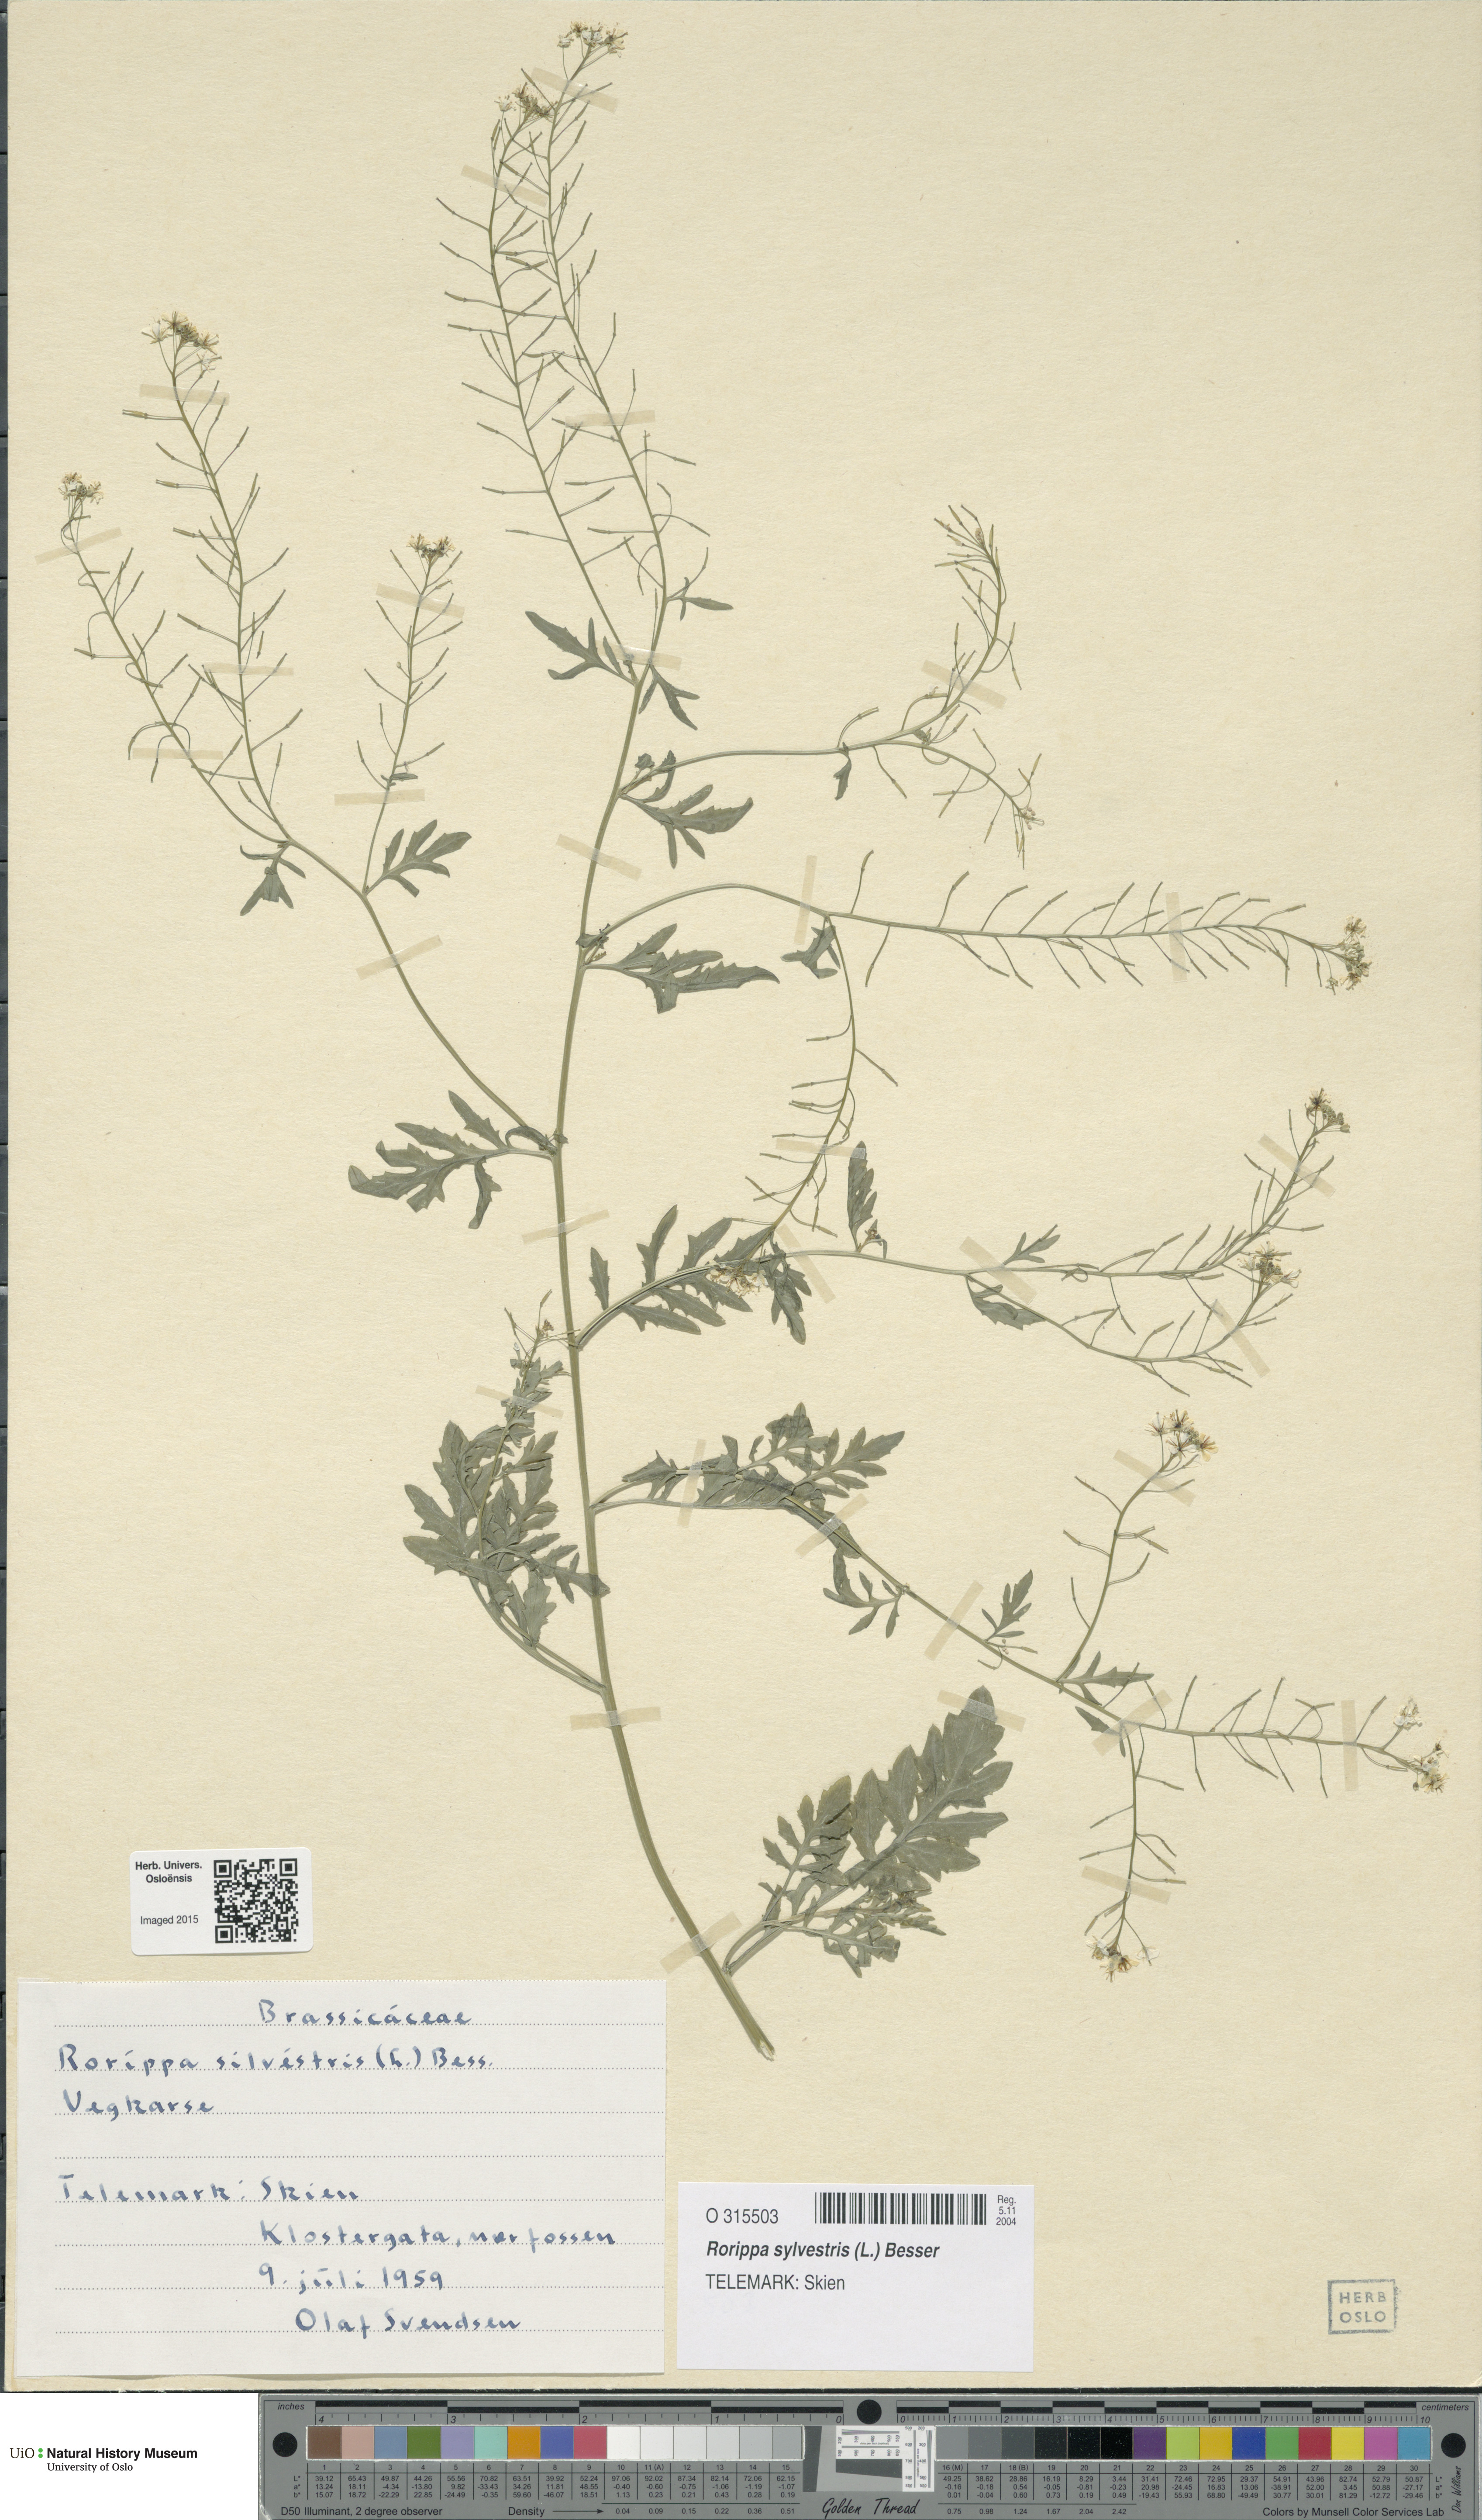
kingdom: Plantae
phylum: Tracheophyta
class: Magnoliopsida
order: Brassicales
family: Brassicaceae
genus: Rorippa
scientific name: Rorippa sylvestris
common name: Creeping yellowcress
